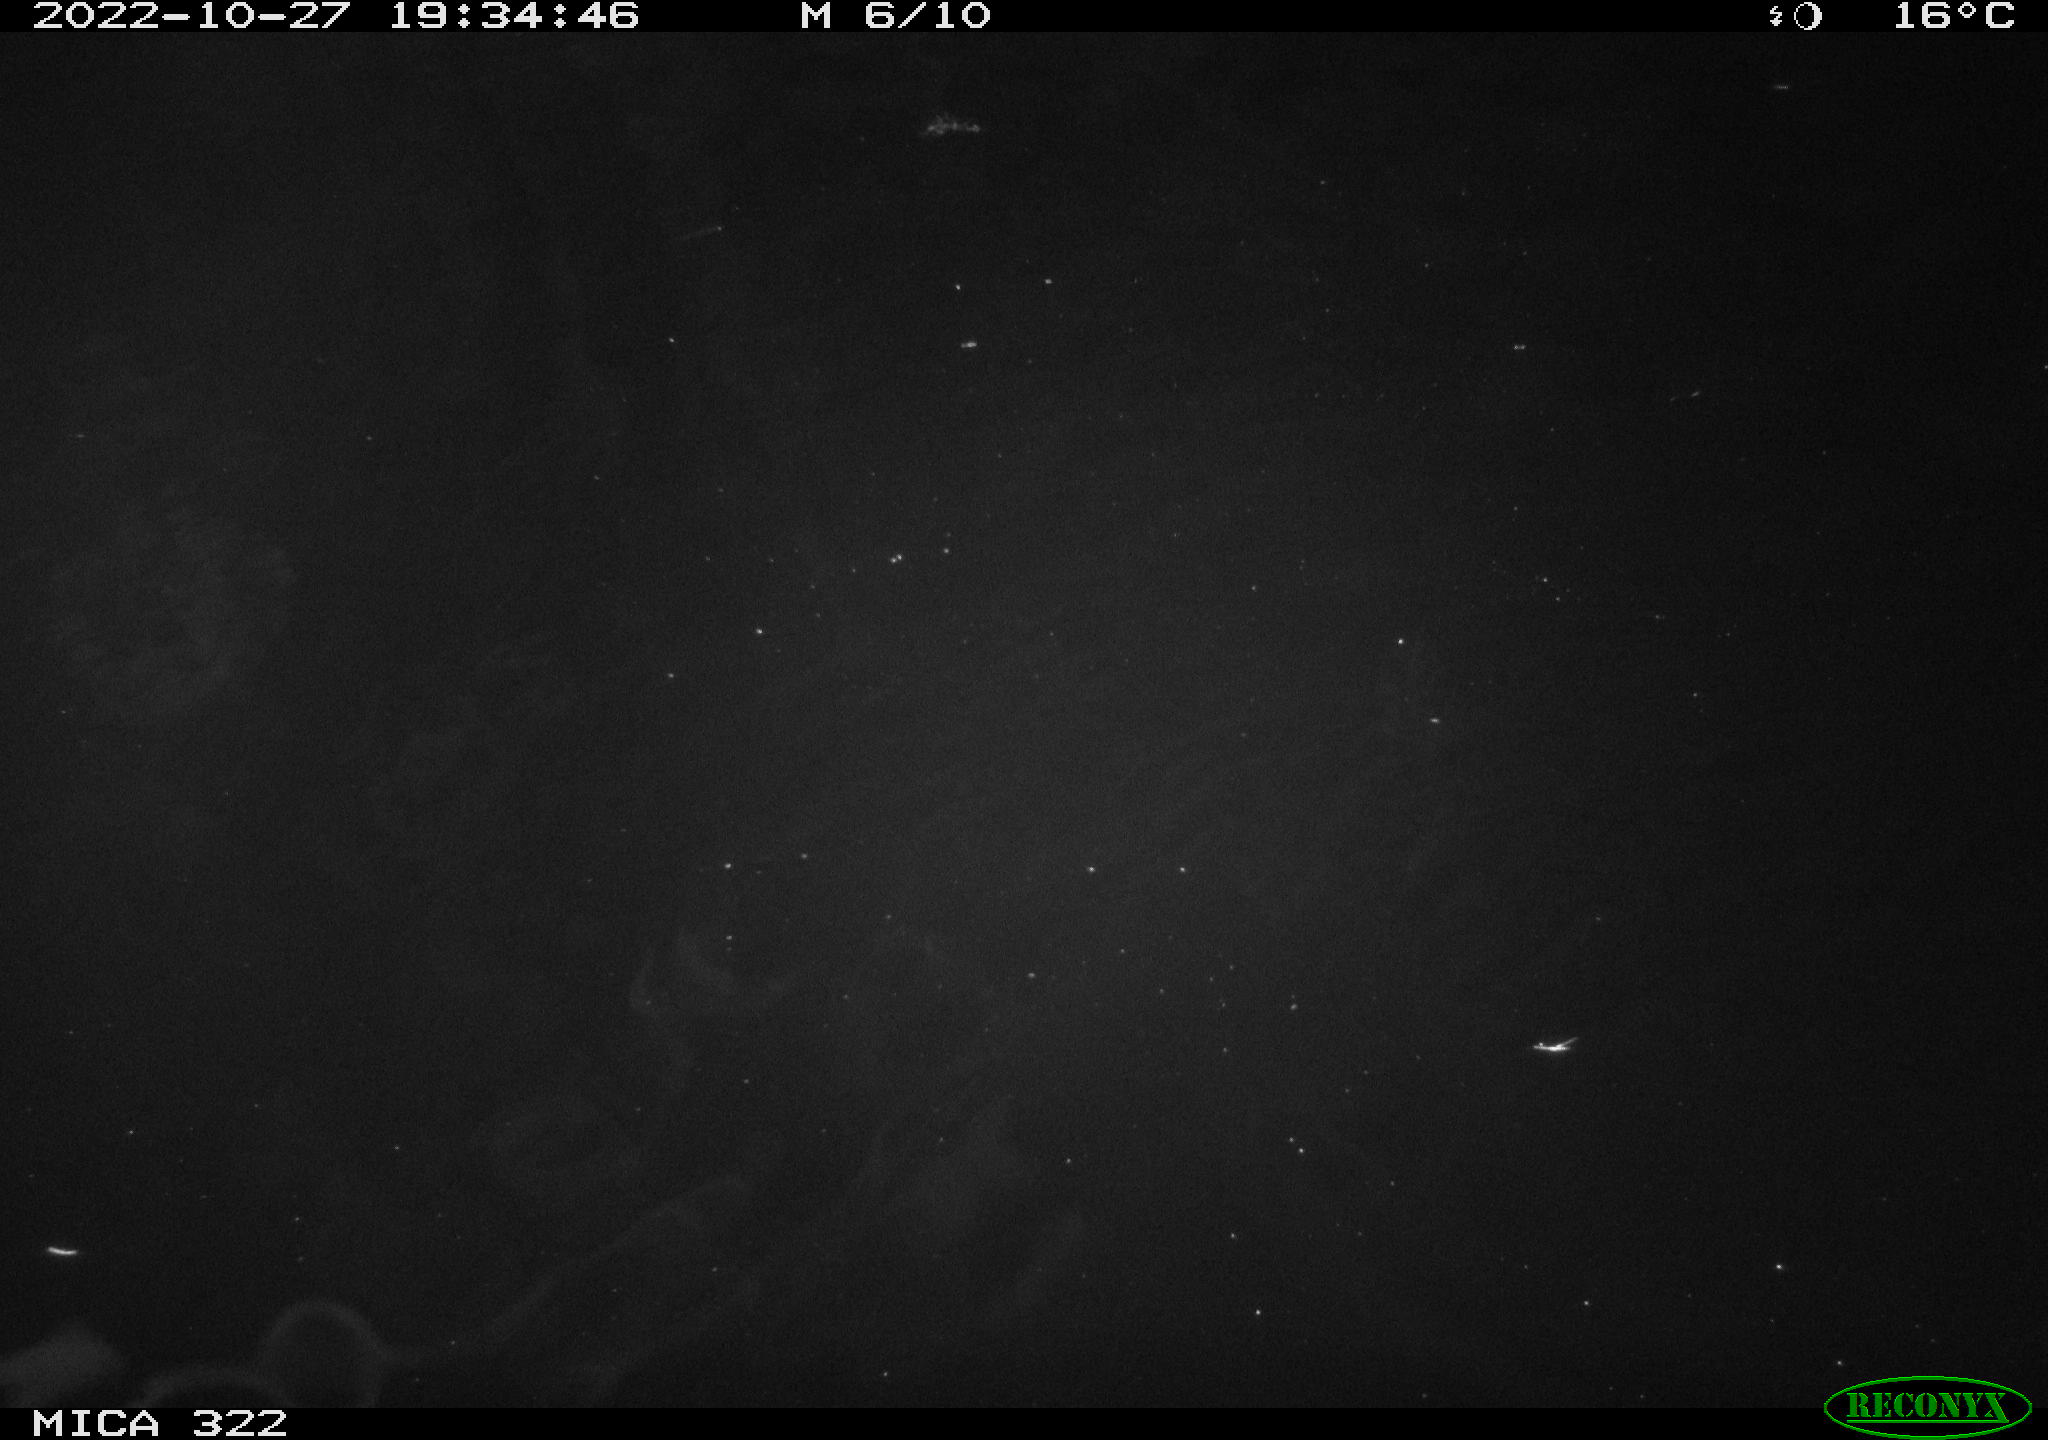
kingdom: Animalia
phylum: Chordata
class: Mammalia
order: Rodentia
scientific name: Rodentia
